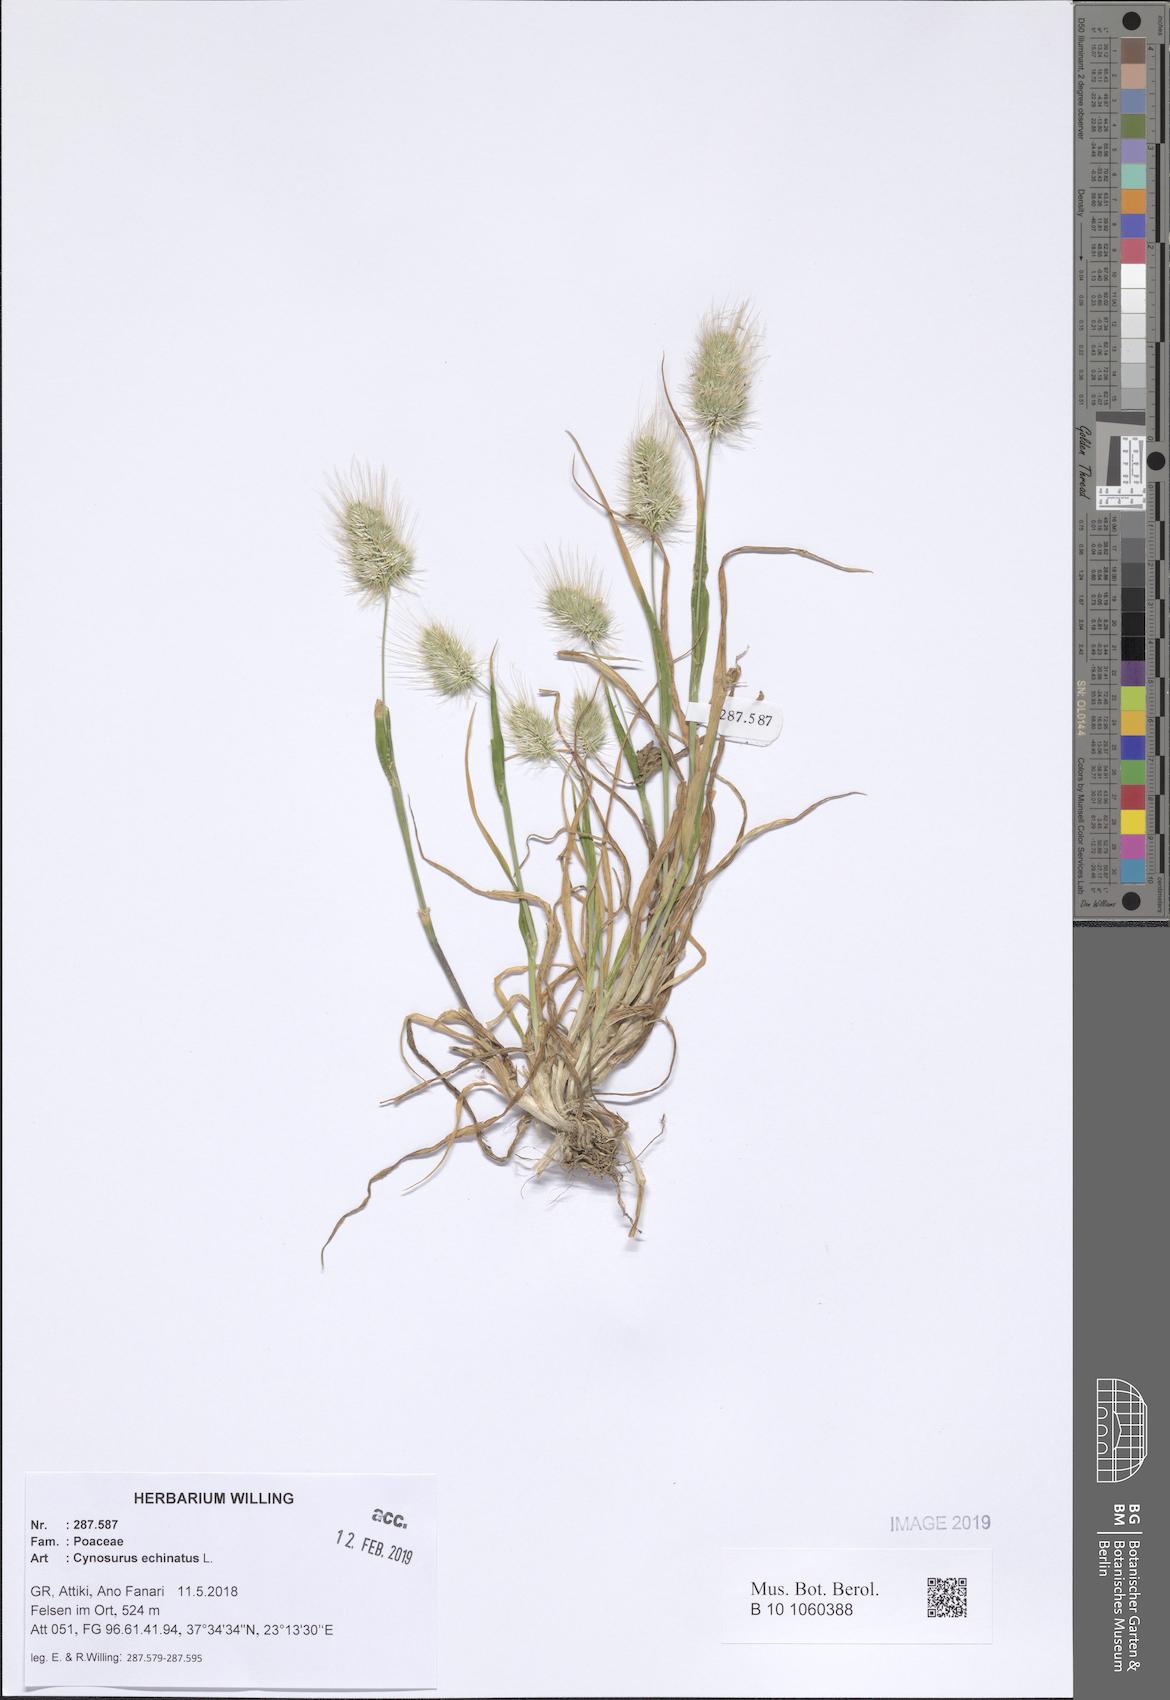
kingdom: Plantae
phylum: Tracheophyta
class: Liliopsida
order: Poales
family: Poaceae
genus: Cynosurus
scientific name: Cynosurus echinatus
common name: Rough dog's-tail
